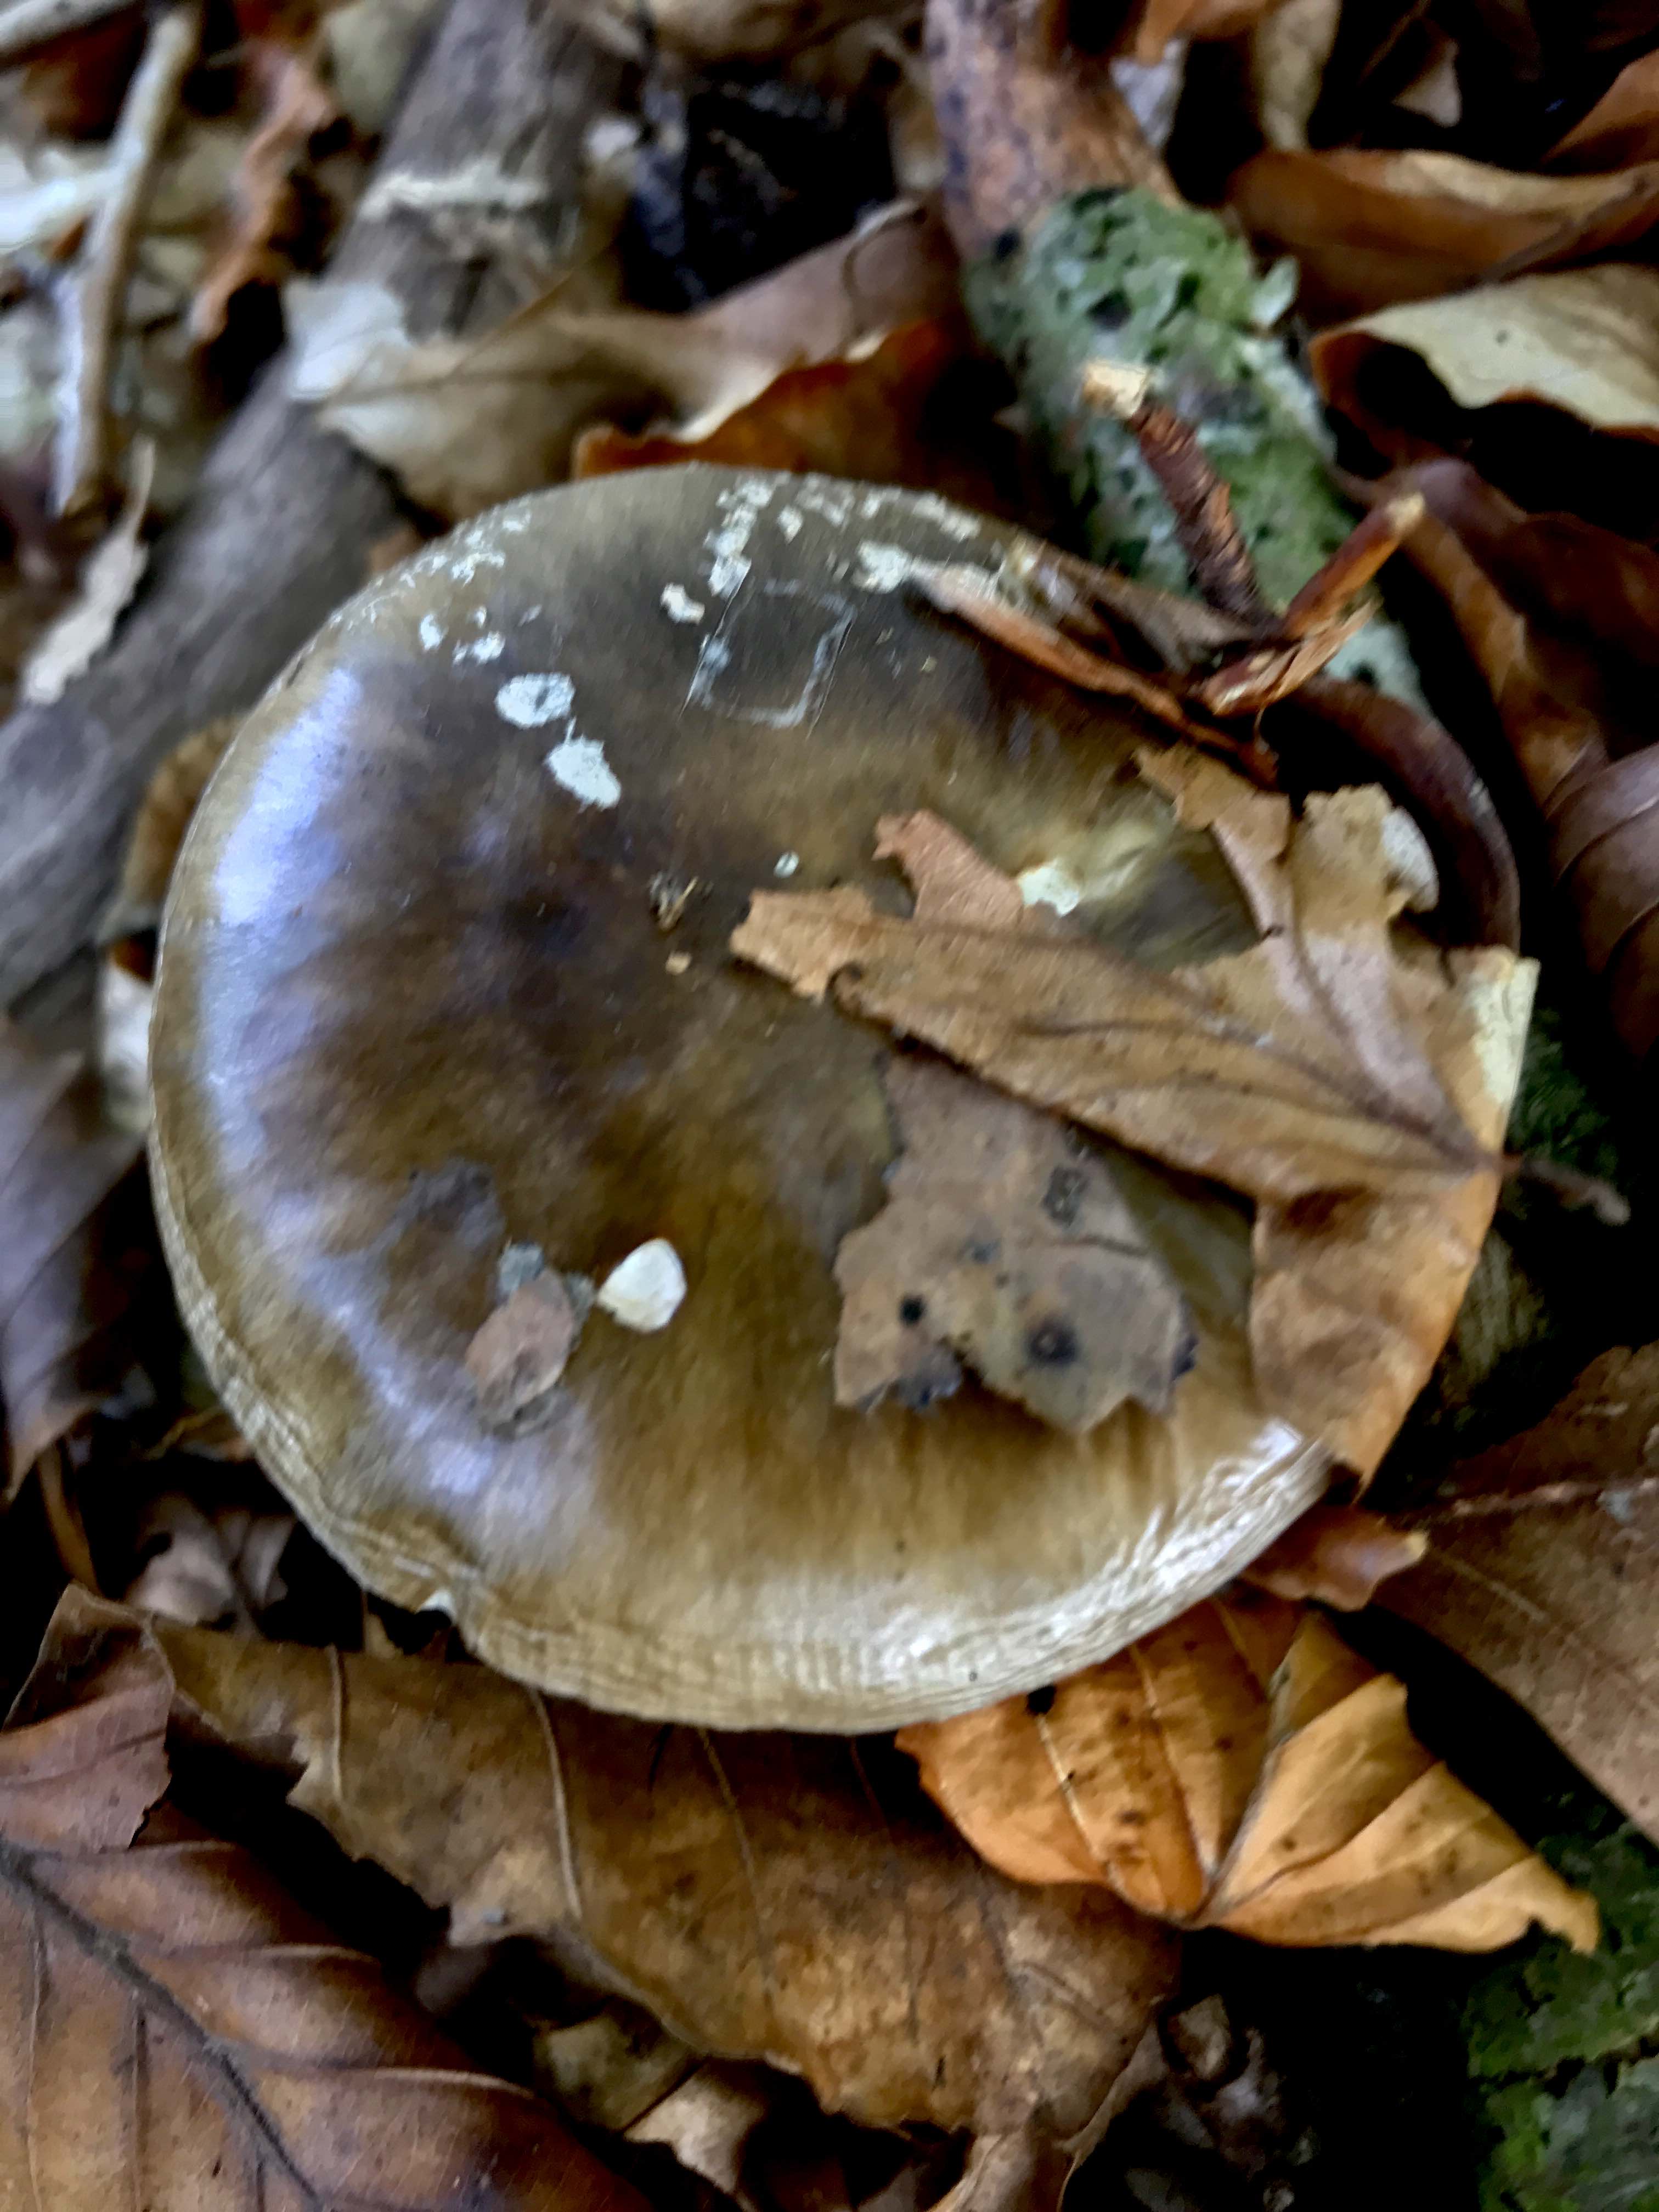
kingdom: Fungi
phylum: Basidiomycota
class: Agaricomycetes
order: Agaricales
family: Amanitaceae
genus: Amanita
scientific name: Amanita
